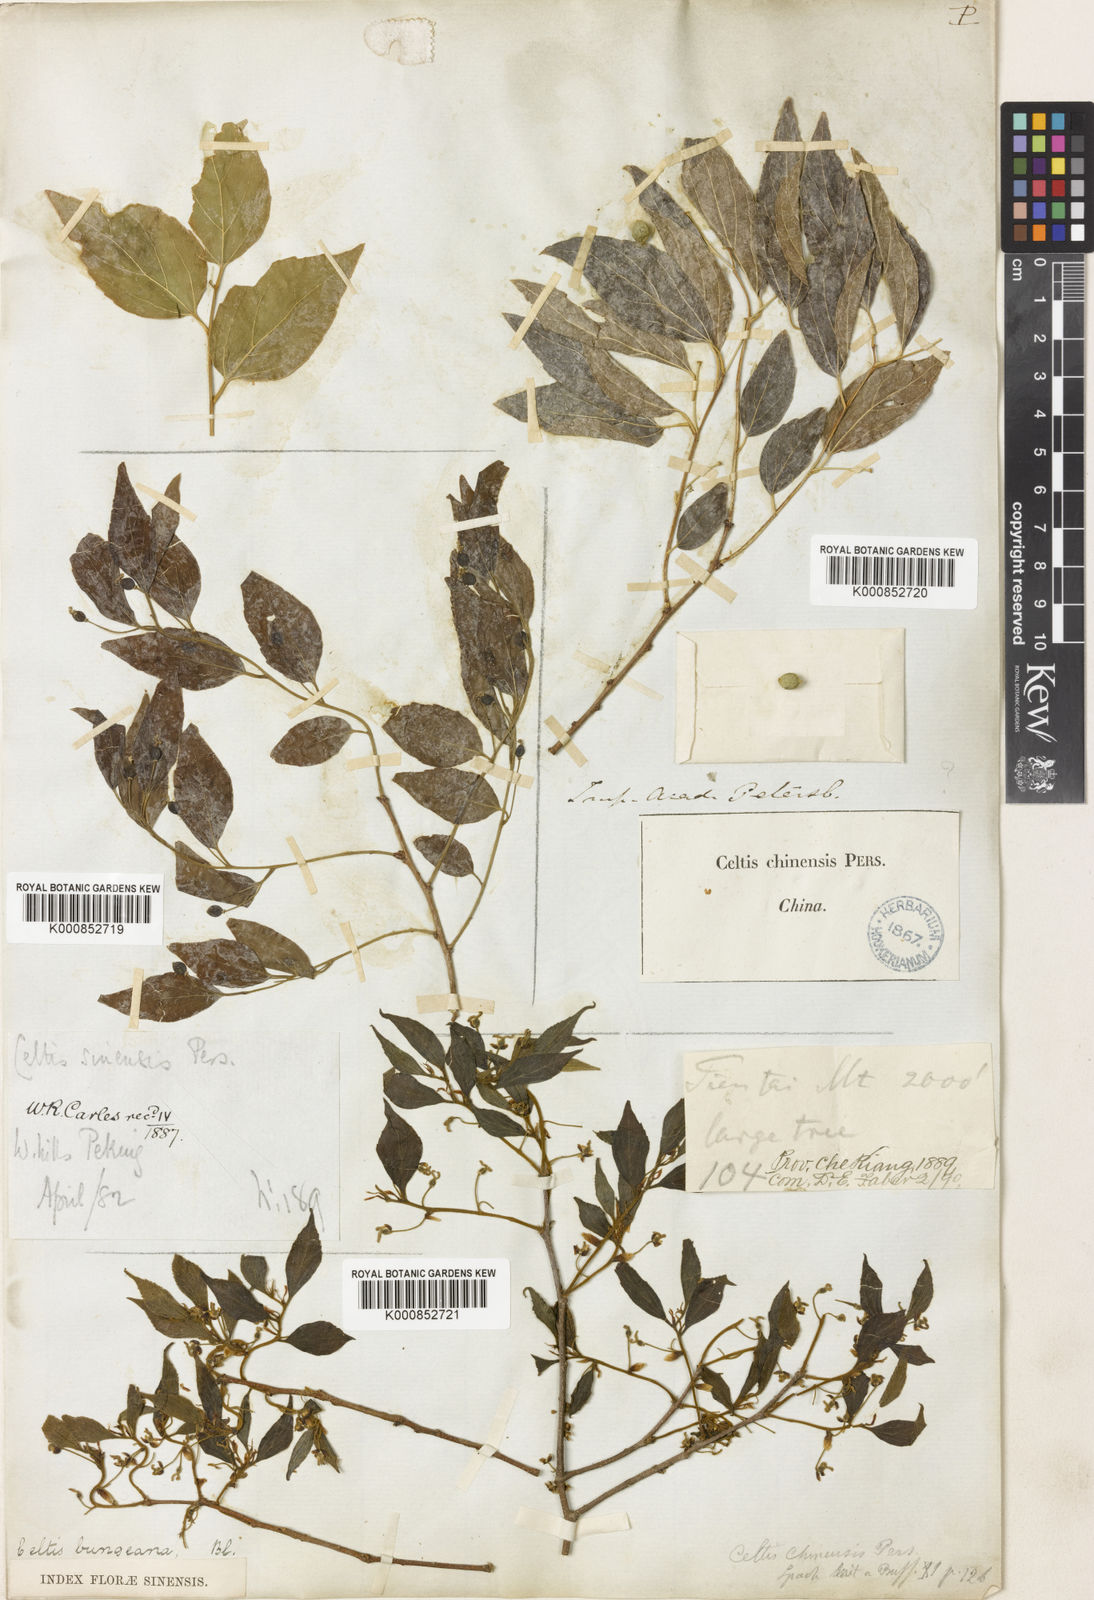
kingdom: Plantae
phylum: Tracheophyta
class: Magnoliopsida
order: Rosales
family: Cannabaceae
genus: Celtis
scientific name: Celtis bungeana
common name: Bunge's hackberry
